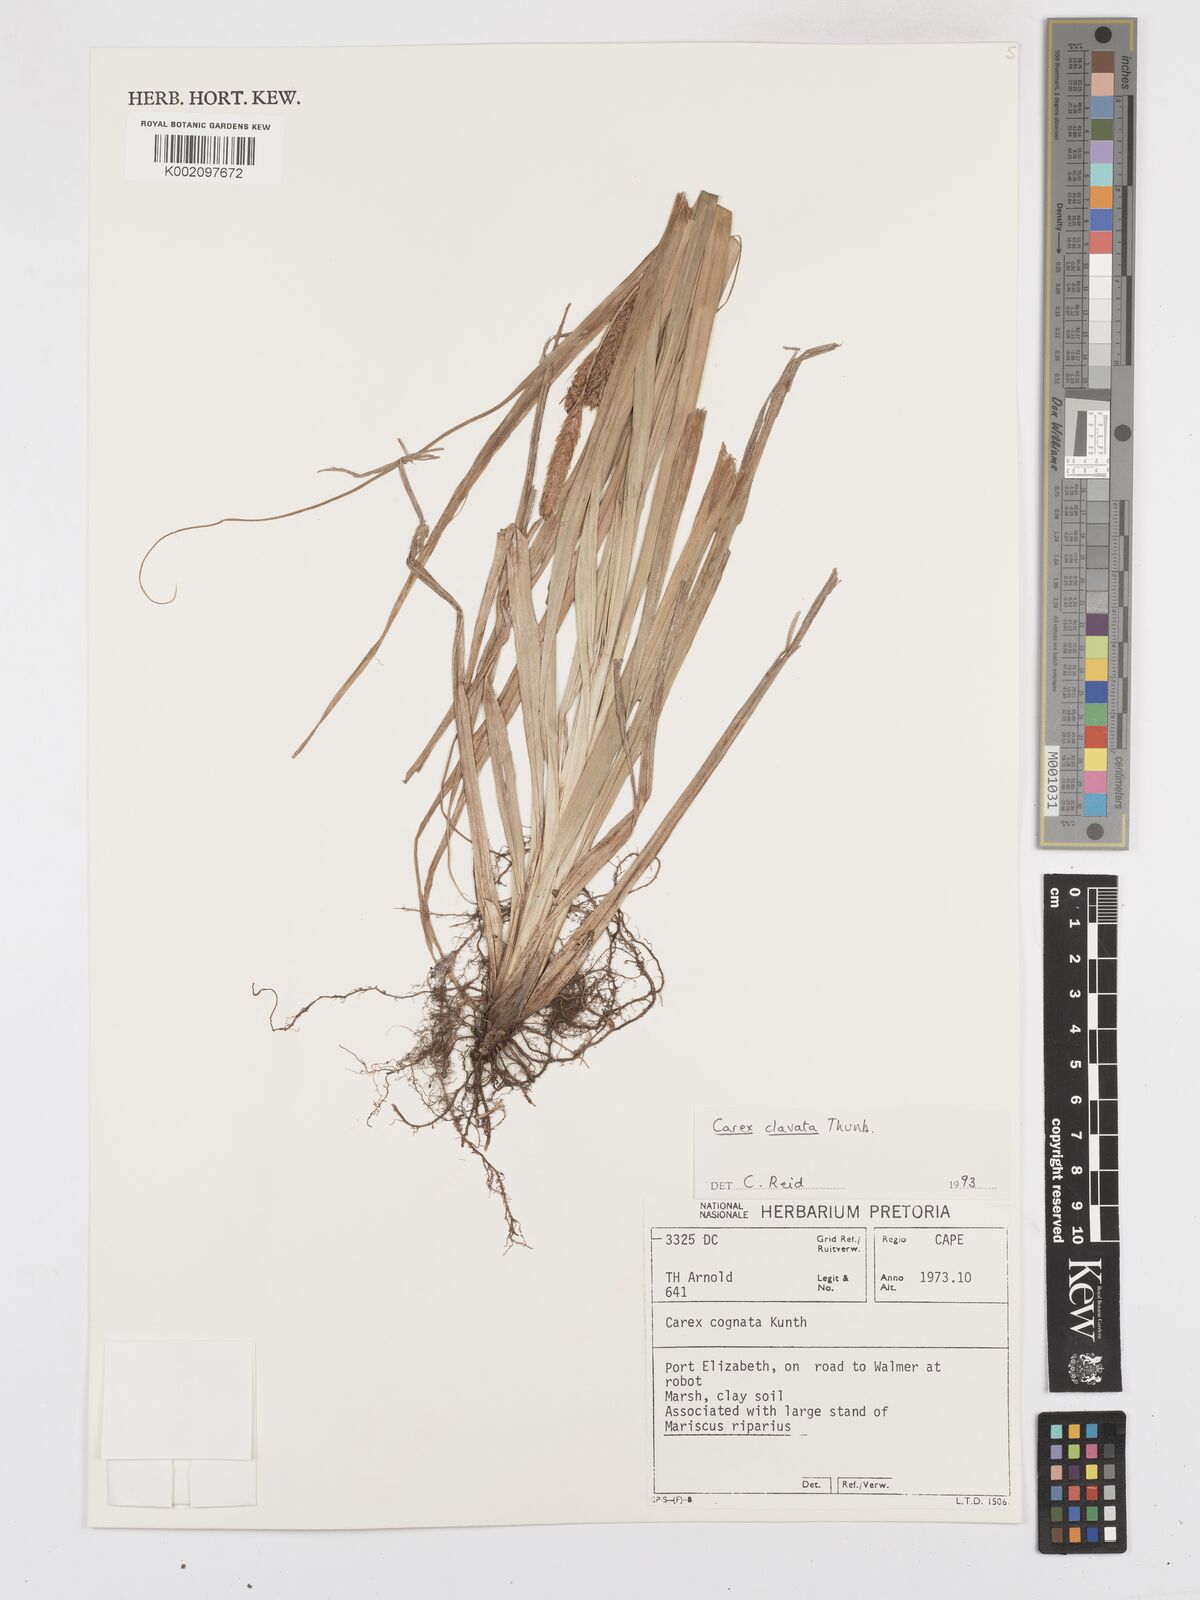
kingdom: Plantae
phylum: Tracheophyta
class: Liliopsida
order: Poales
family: Cyperaceae
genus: Carex
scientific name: Carex clavata
